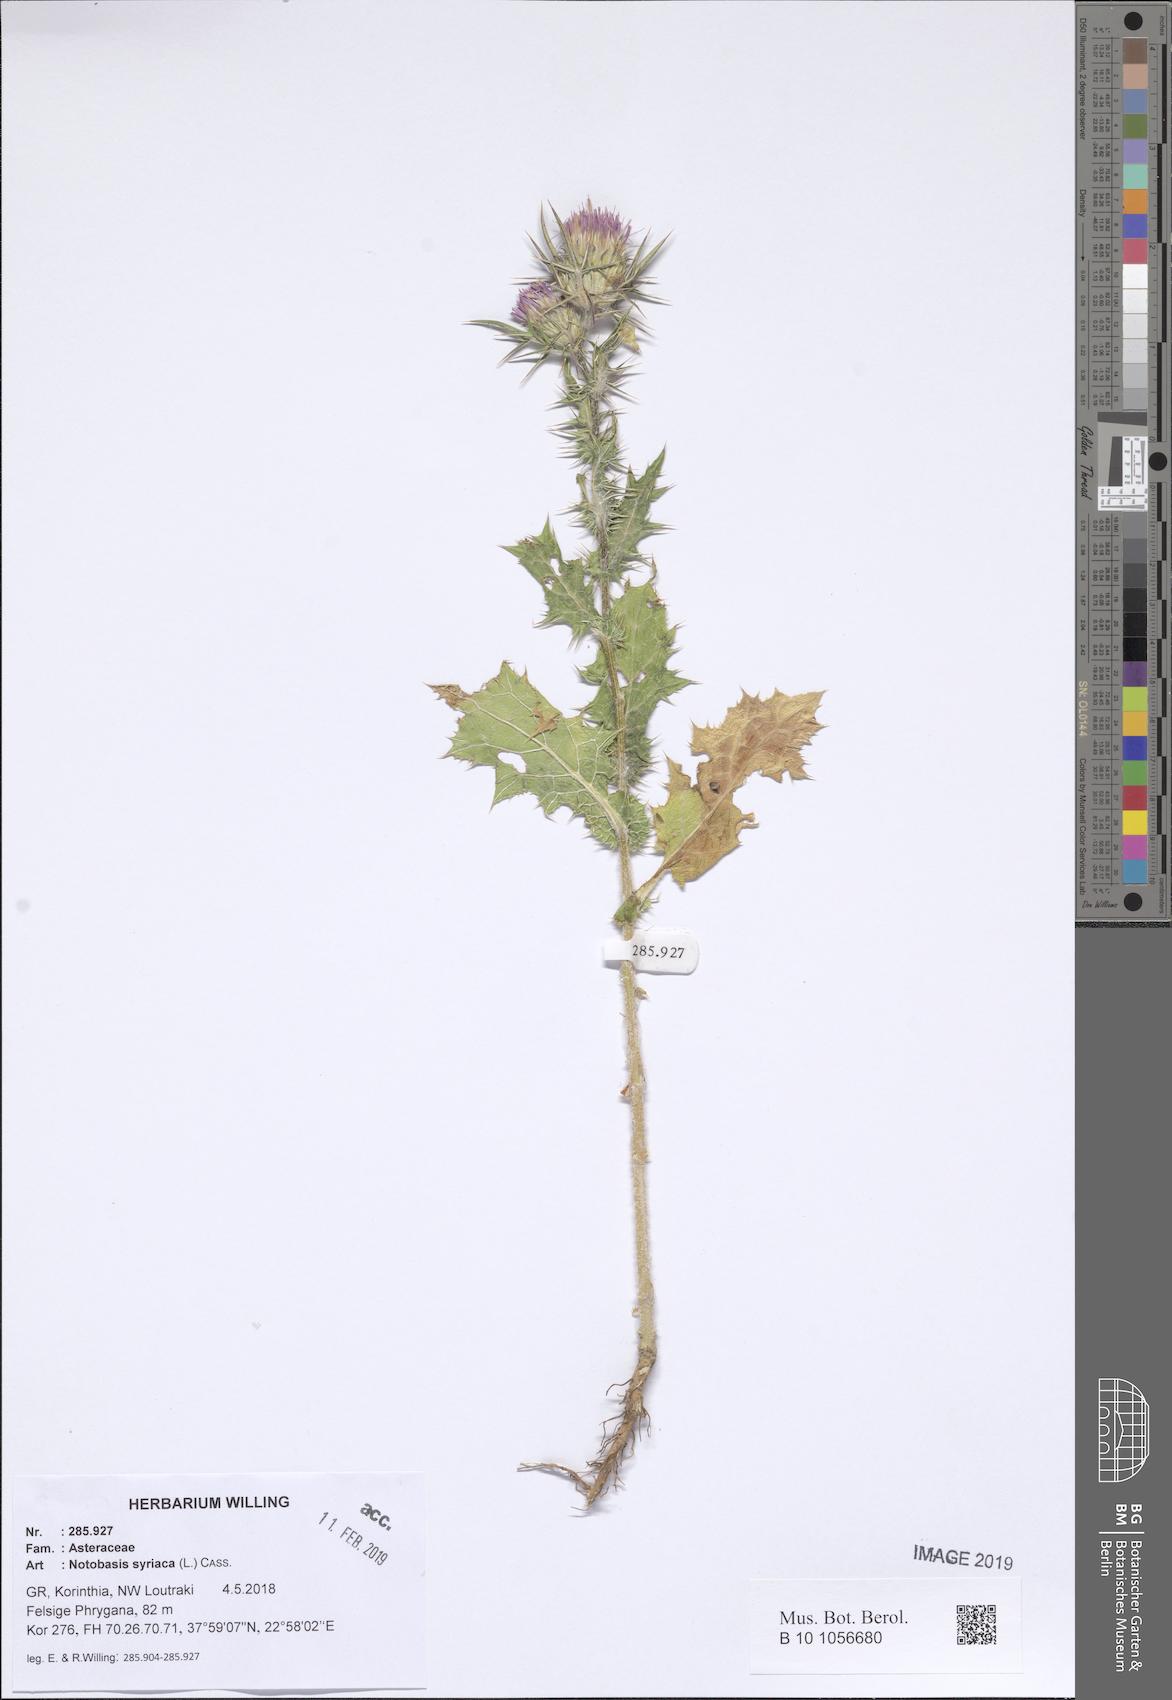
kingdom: Plantae
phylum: Tracheophyta
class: Magnoliopsida
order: Asterales
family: Asteraceae
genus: Notobasis
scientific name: Notobasis syriaca
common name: Syrian thistle
